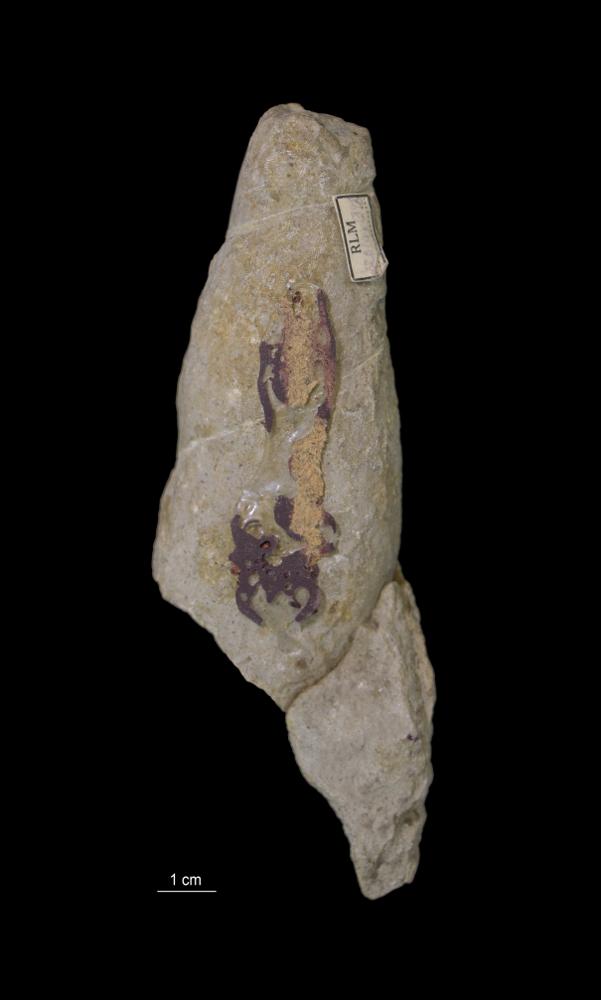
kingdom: Animalia
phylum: Mollusca
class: Gastropoda
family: Subulitidae
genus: Subulites
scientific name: Subulites Phasianella gigas
